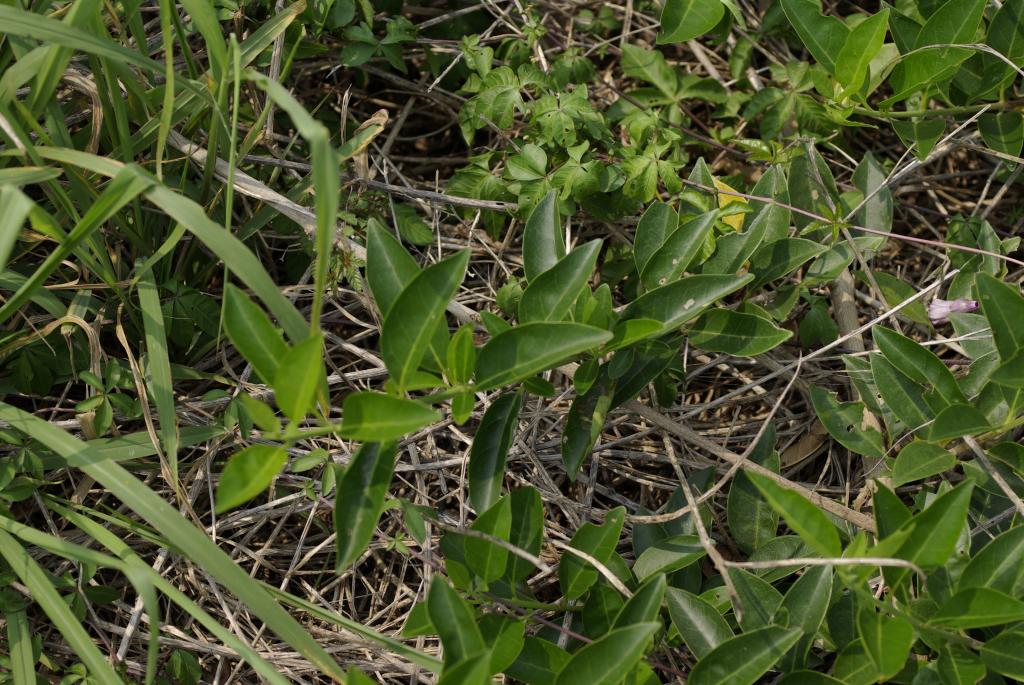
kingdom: Plantae
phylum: Tracheophyta
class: Magnoliopsida
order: Lamiales
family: Lamiaceae
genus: Volkameria
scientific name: Volkameria inermis
